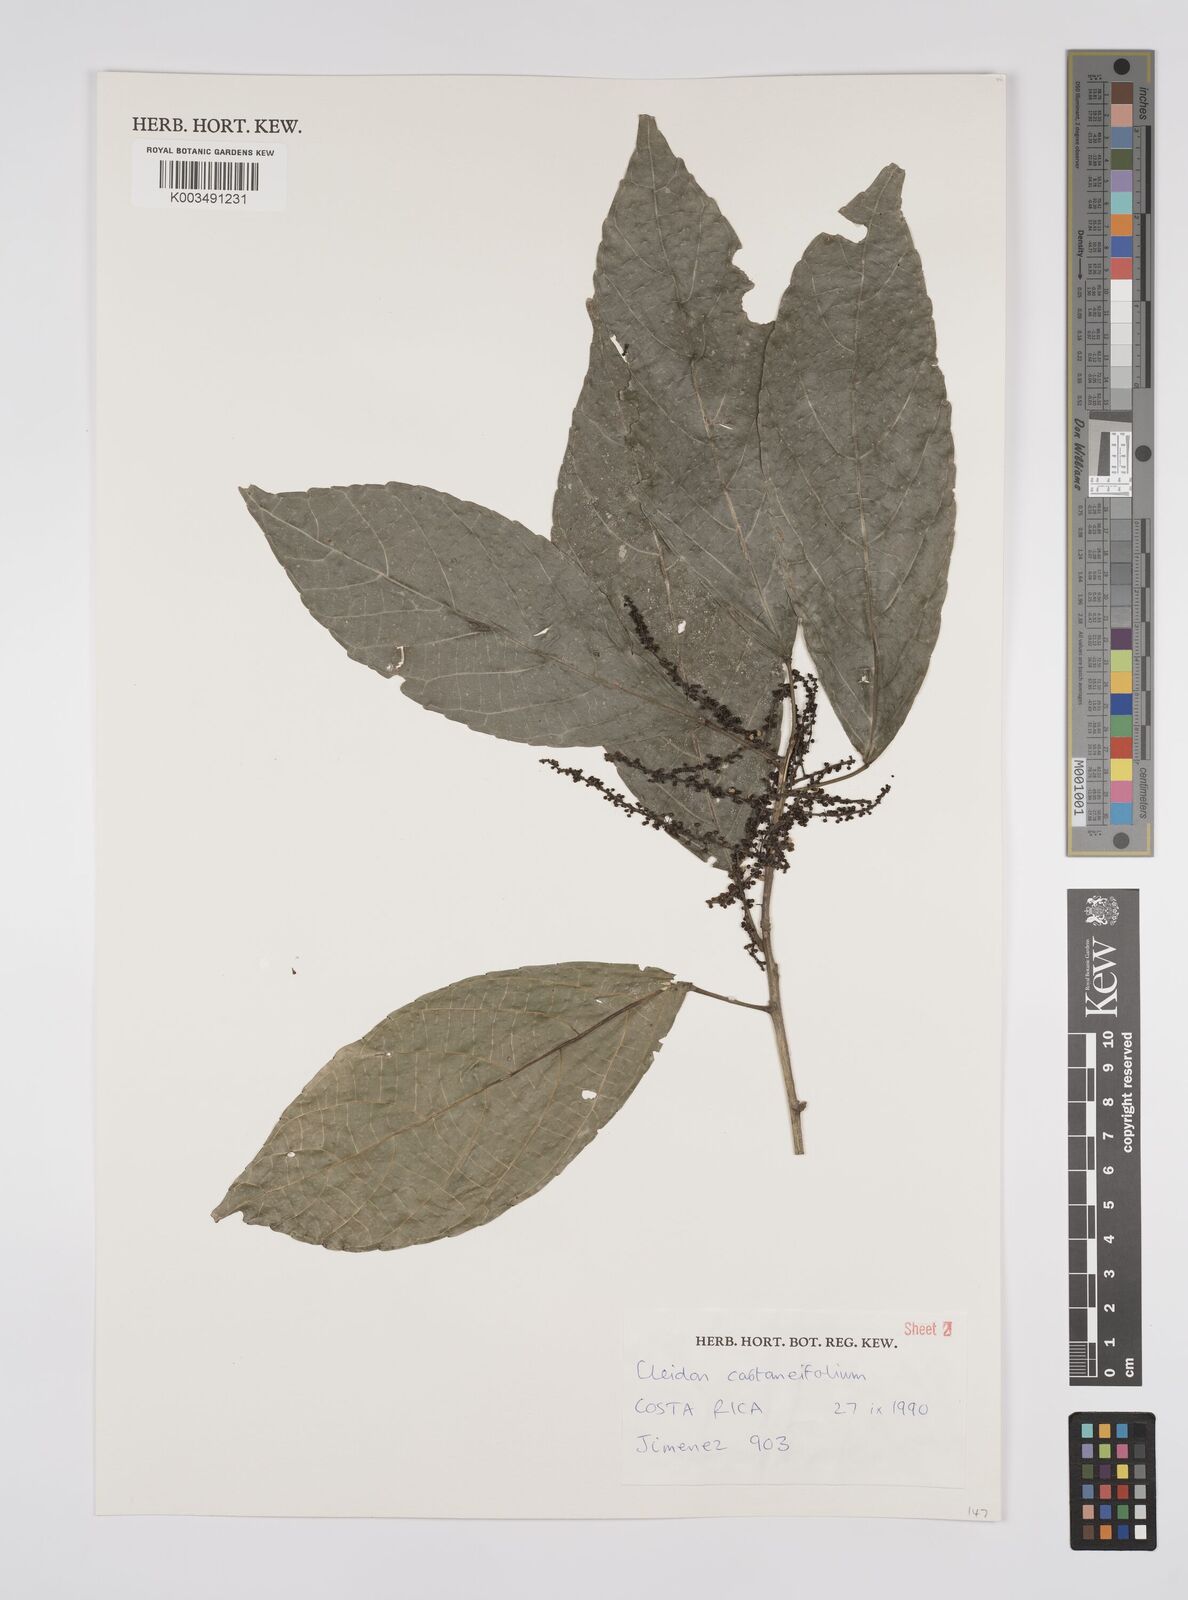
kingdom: Plantae
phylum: Tracheophyta
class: Magnoliopsida
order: Malpighiales
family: Euphorbiaceae
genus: Cleidion
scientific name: Cleidion castaneifolium
